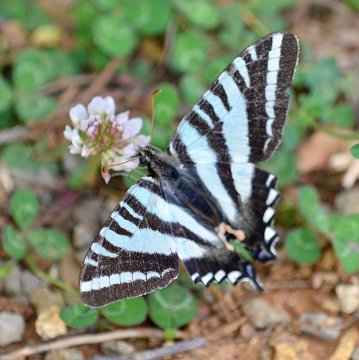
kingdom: Animalia
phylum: Arthropoda
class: Insecta
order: Lepidoptera
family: Papilionidae
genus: Protographium
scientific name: Protographium marcellus
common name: Zebra Swallowtail
